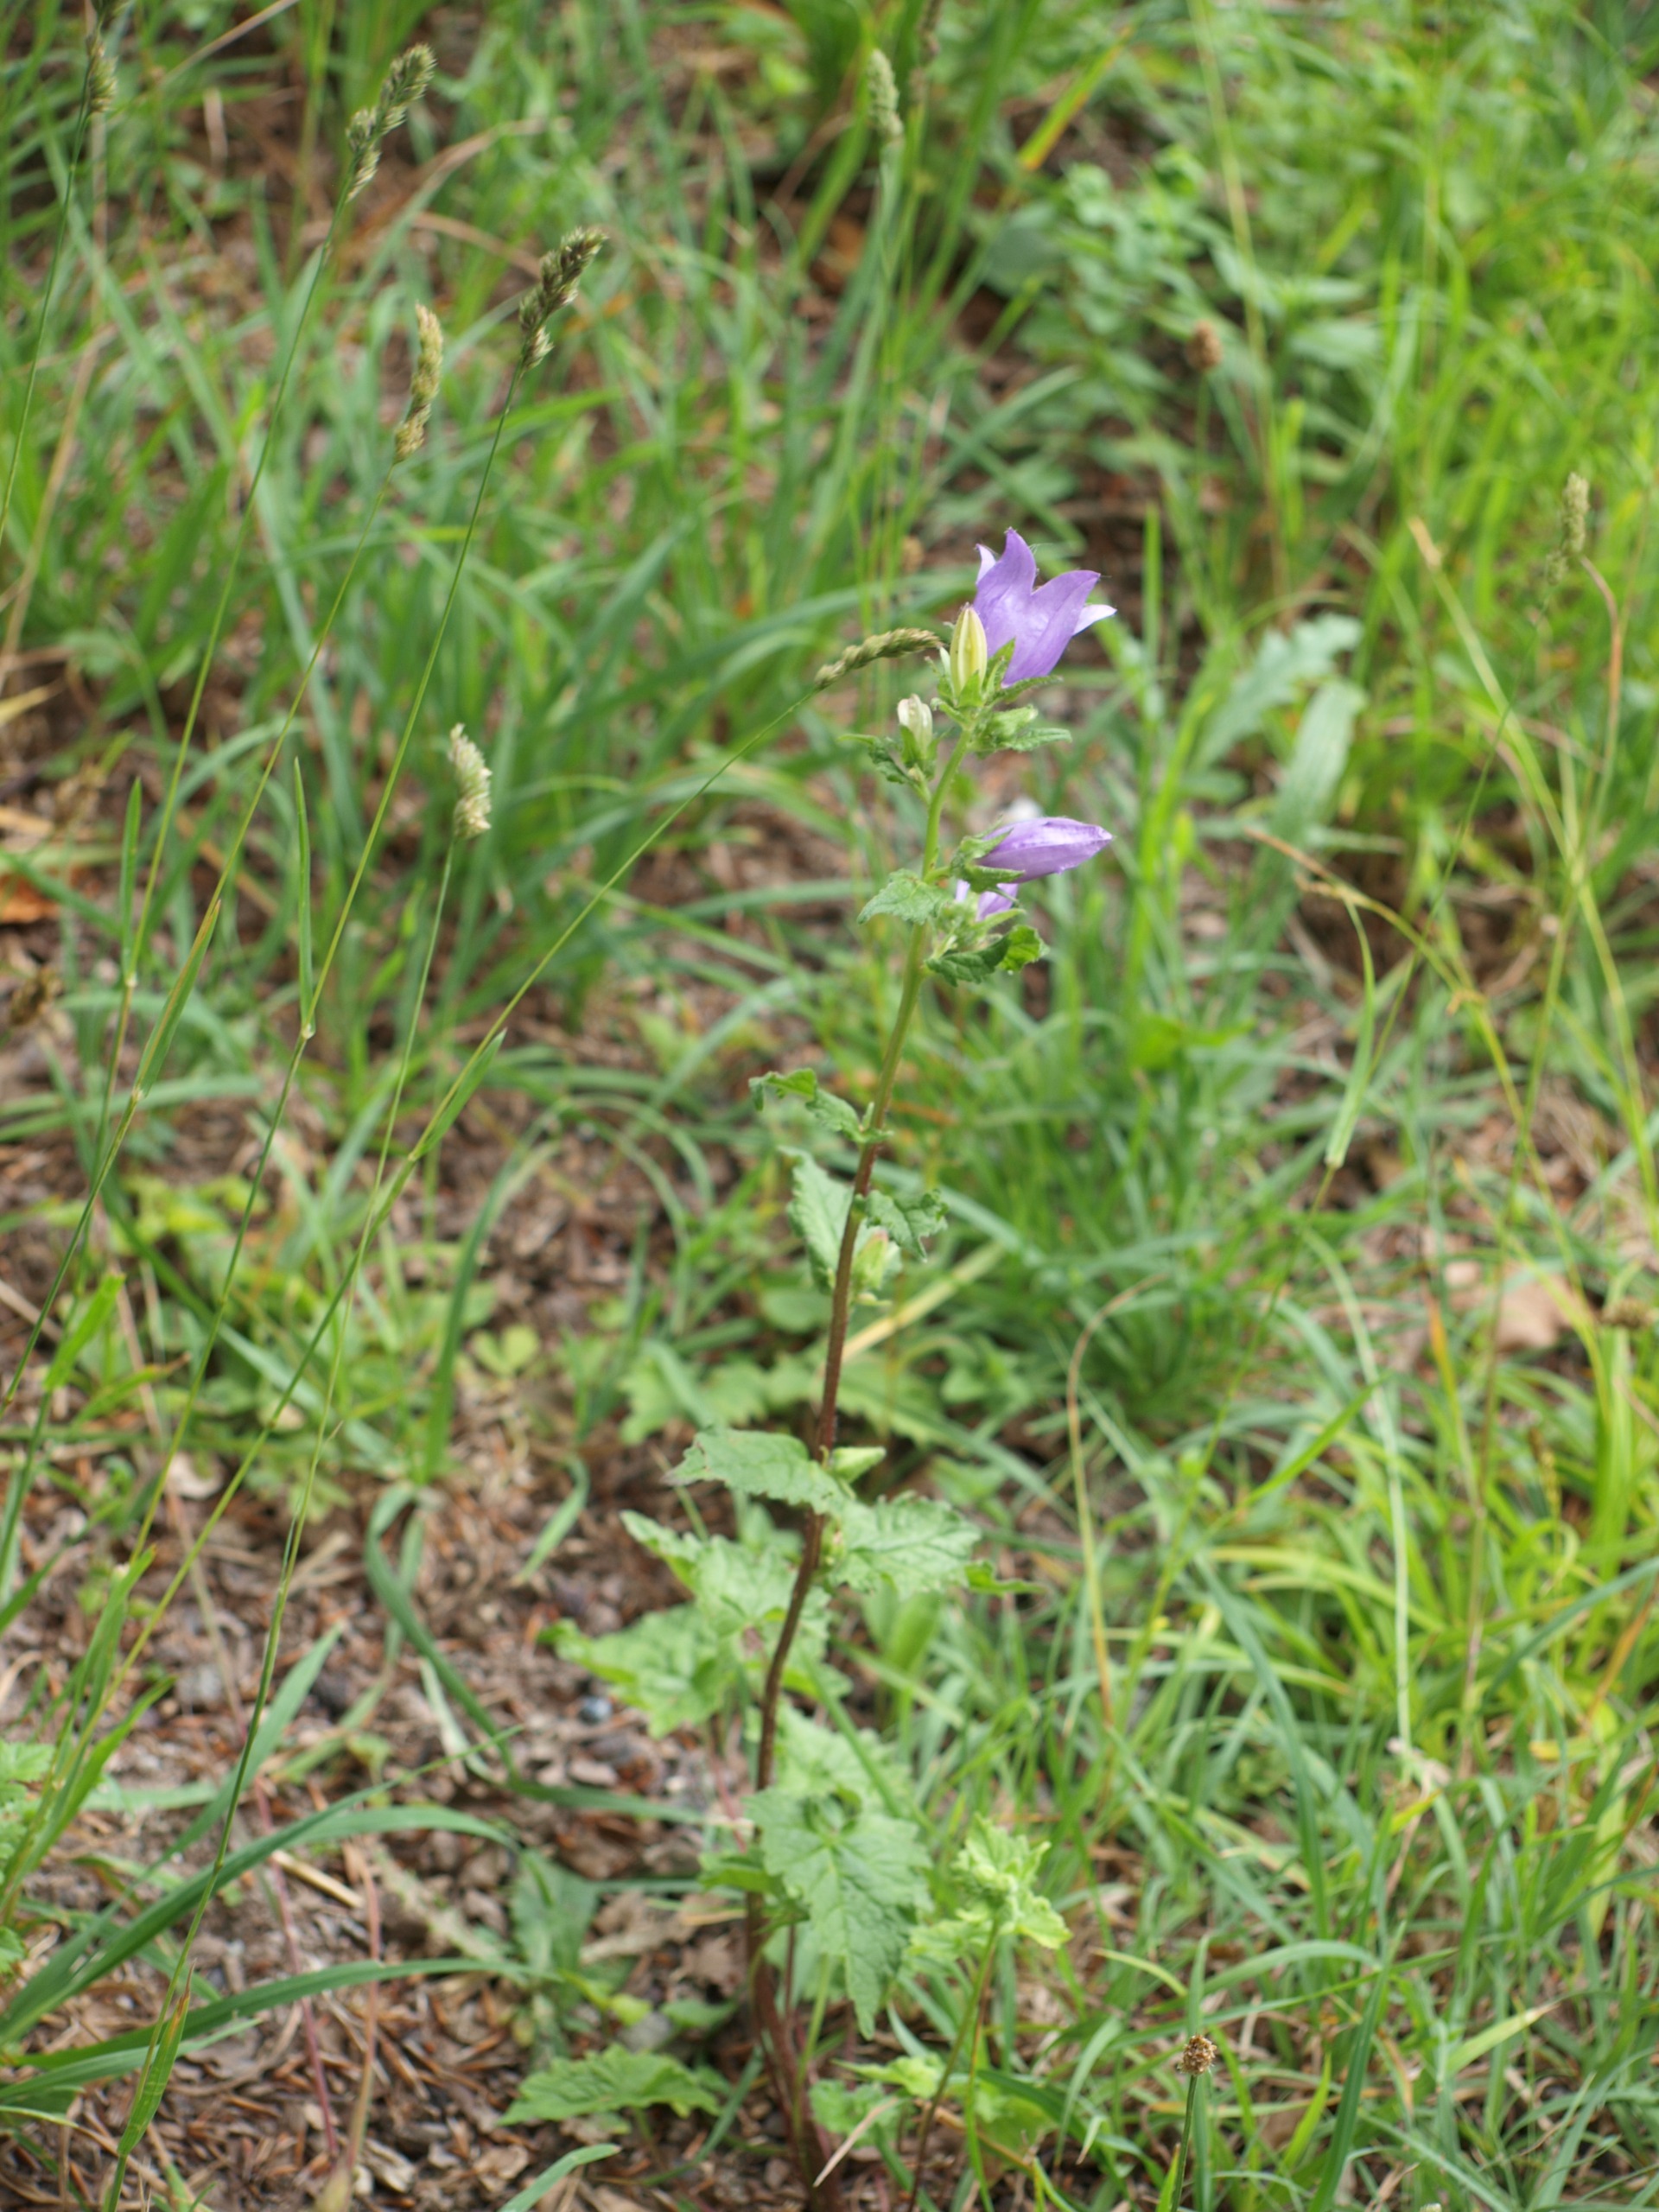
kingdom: Plantae
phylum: Tracheophyta
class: Magnoliopsida
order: Asterales
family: Campanulaceae
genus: Campanula
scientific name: Campanula trachelium
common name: Nælde-klokke
